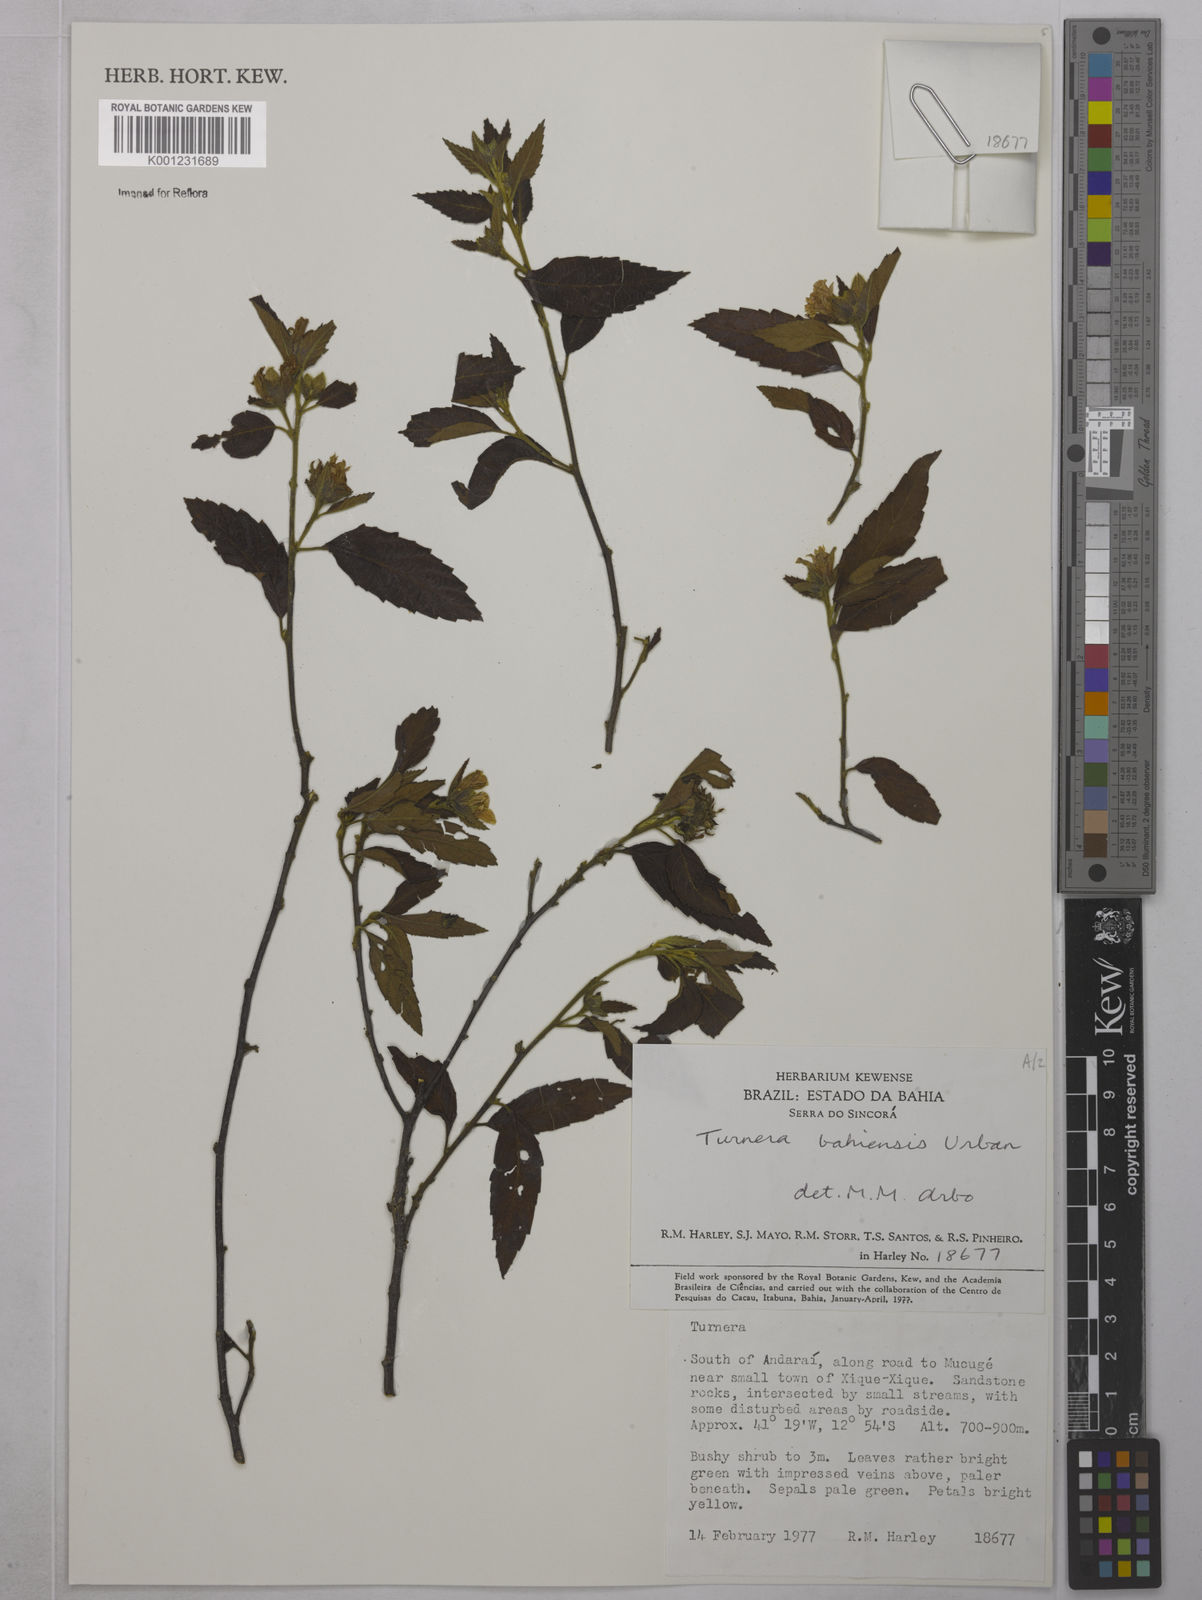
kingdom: Plantae
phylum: Tracheophyta
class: Magnoliopsida
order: Malpighiales
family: Turneraceae
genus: Turnera
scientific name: Turnera bahiensis
